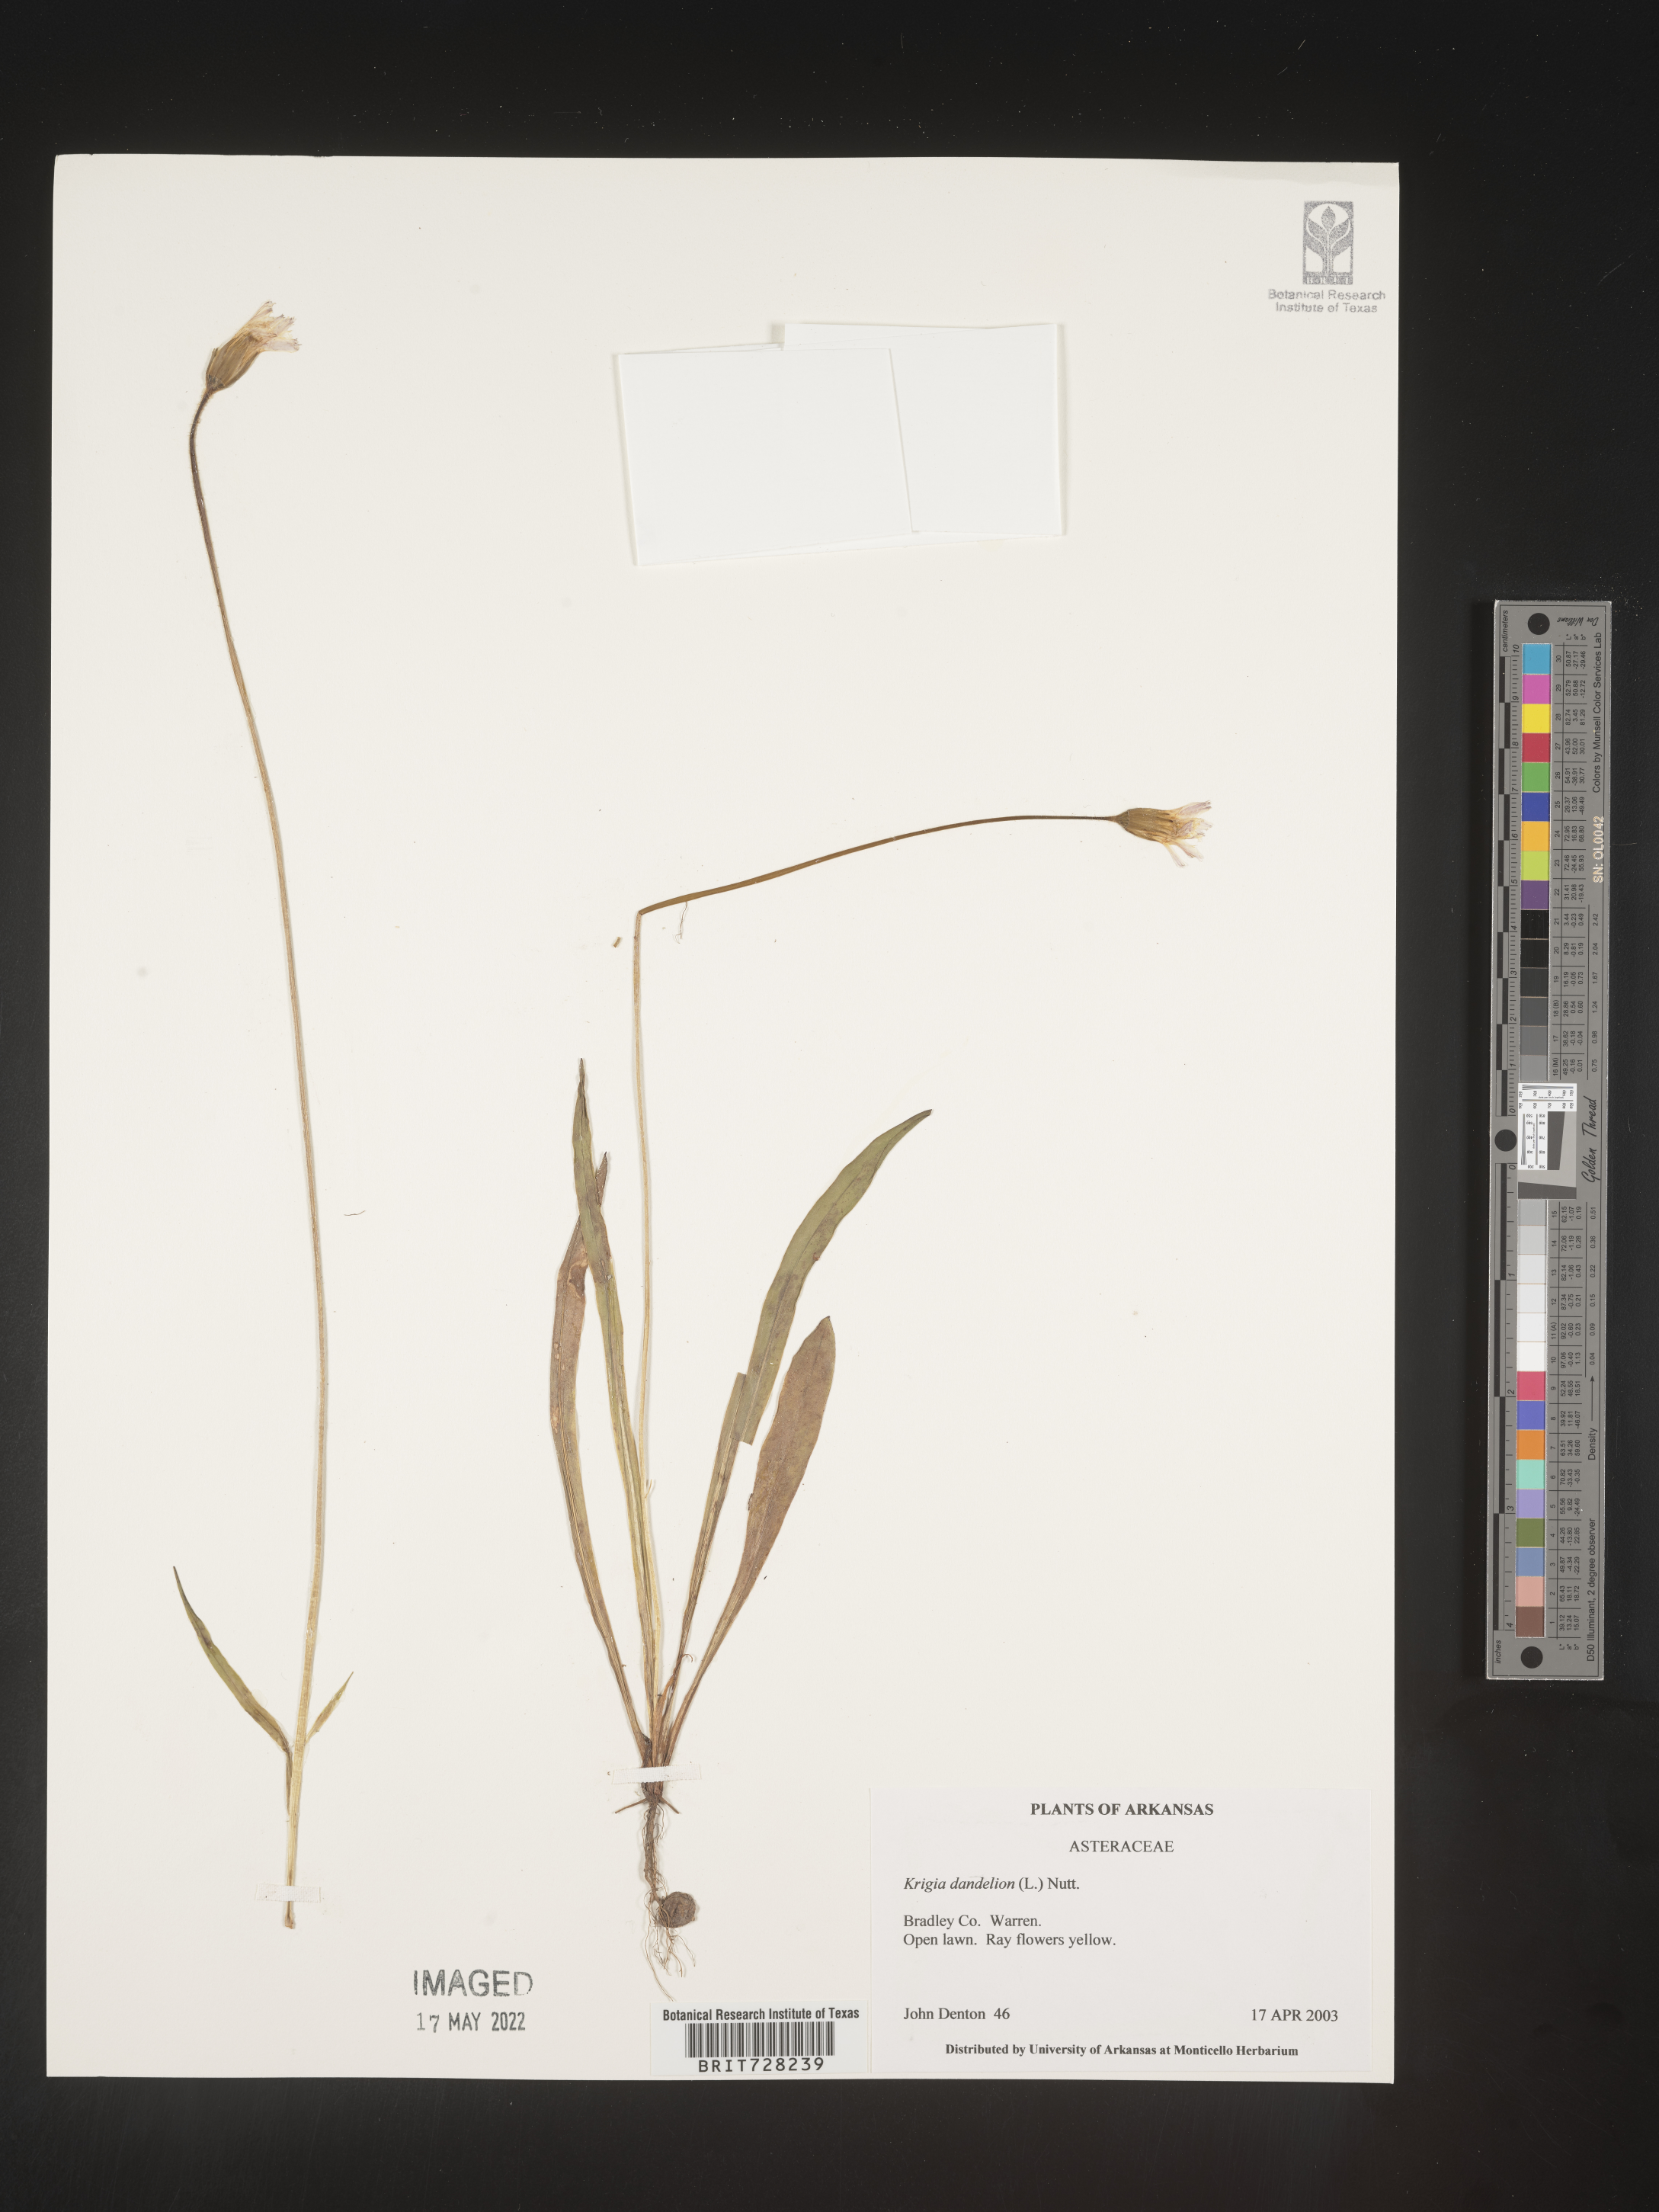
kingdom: Plantae
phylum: Tracheophyta
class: Magnoliopsida
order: Asterales
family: Asteraceae
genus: Krigia
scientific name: Krigia dandelion
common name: Colonial dwarf-dandelion
